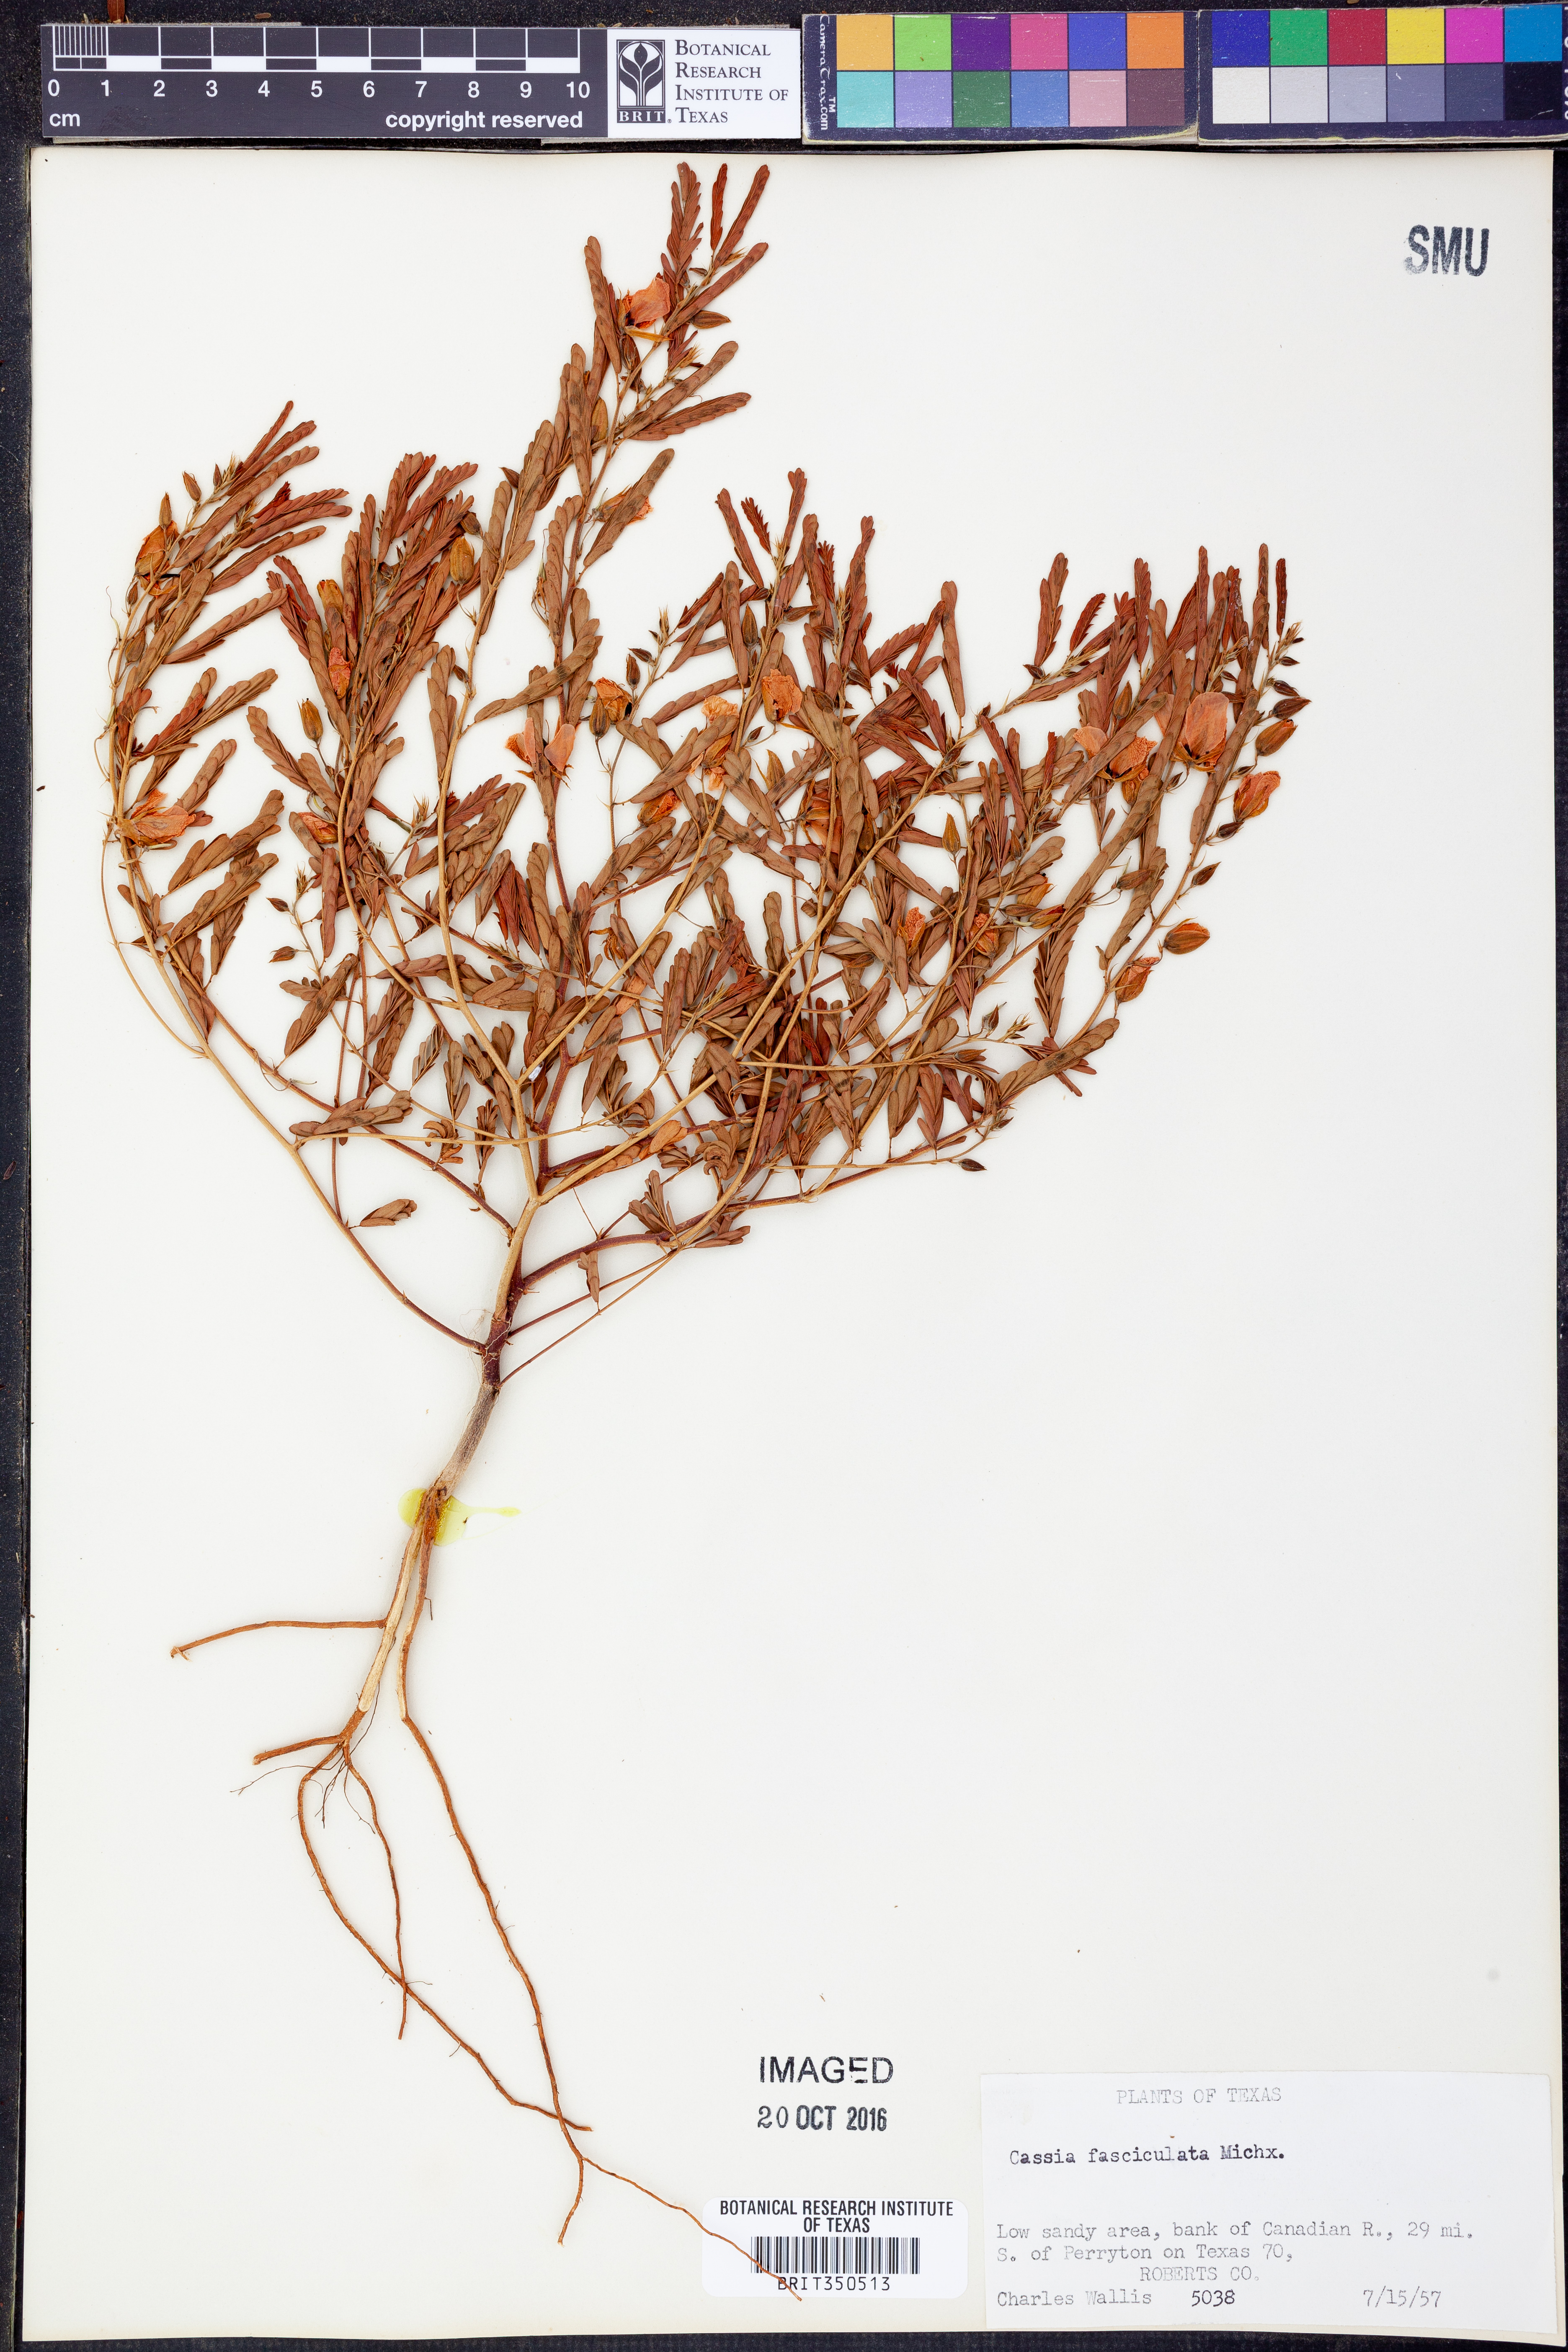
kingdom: Plantae
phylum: Tracheophyta
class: Magnoliopsida
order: Fabales
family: Fabaceae
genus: Chamaecrista
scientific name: Chamaecrista fasciculata
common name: Golden cassia
